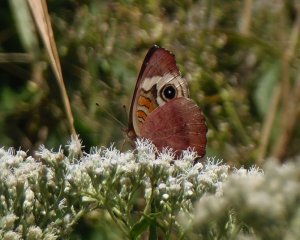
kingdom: Animalia
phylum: Arthropoda
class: Insecta
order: Lepidoptera
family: Nymphalidae
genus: Junonia
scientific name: Junonia coenia
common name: Common Buckeye
